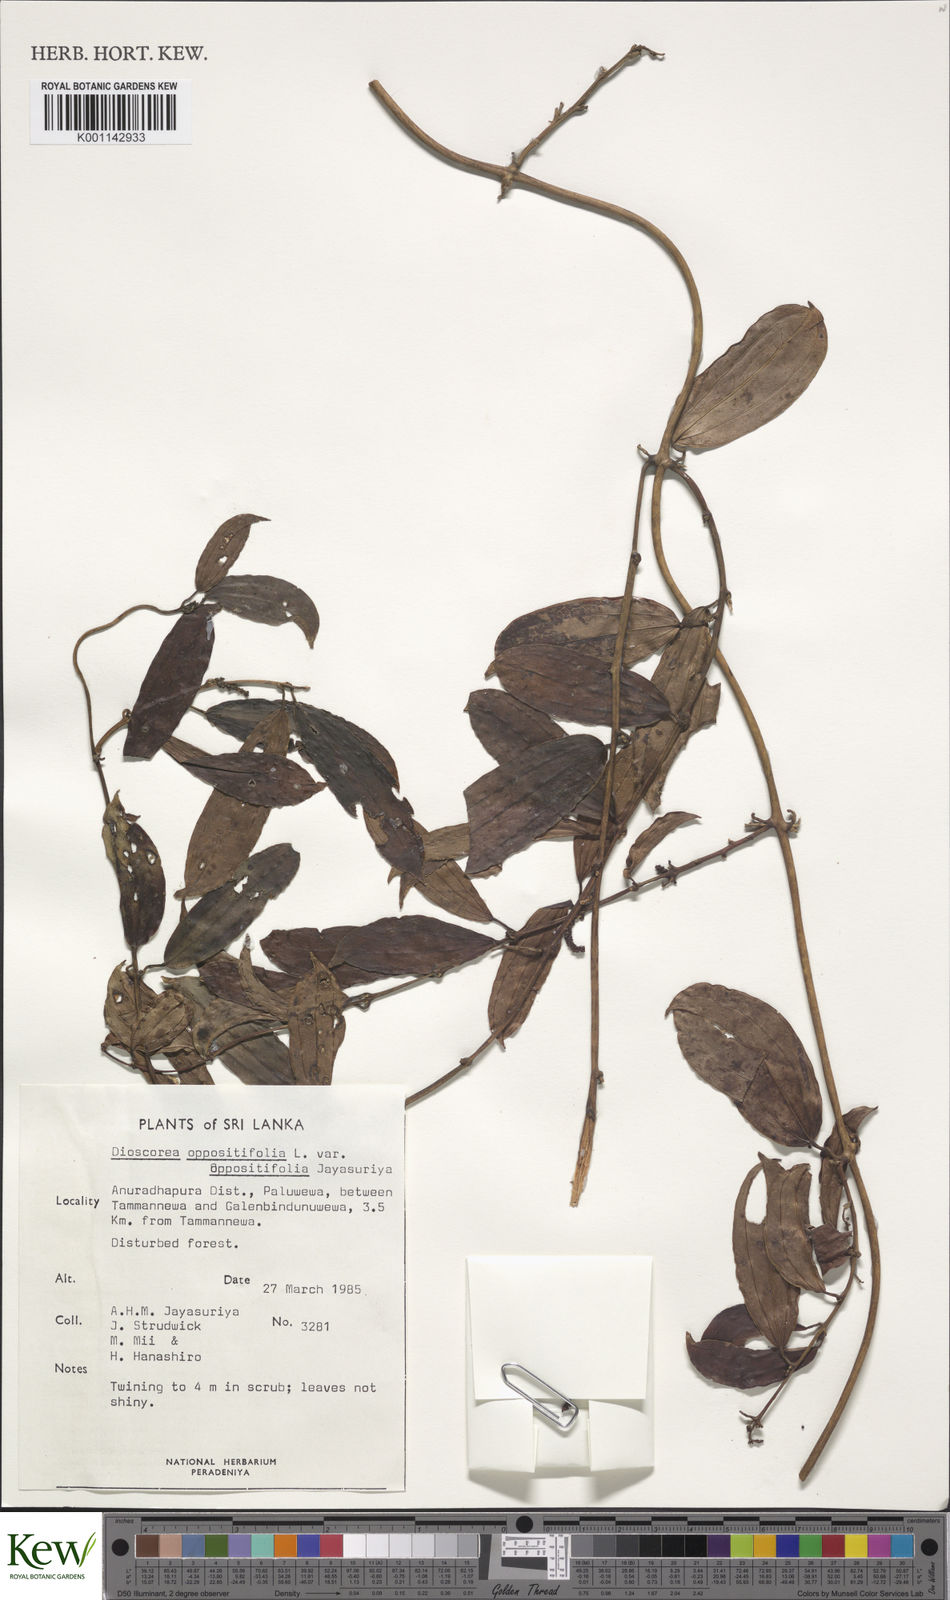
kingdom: Plantae
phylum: Tracheophyta
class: Liliopsida
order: Dioscoreales
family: Dioscoreaceae
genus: Dioscorea
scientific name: Dioscorea oppositifolia
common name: Chinese yam
